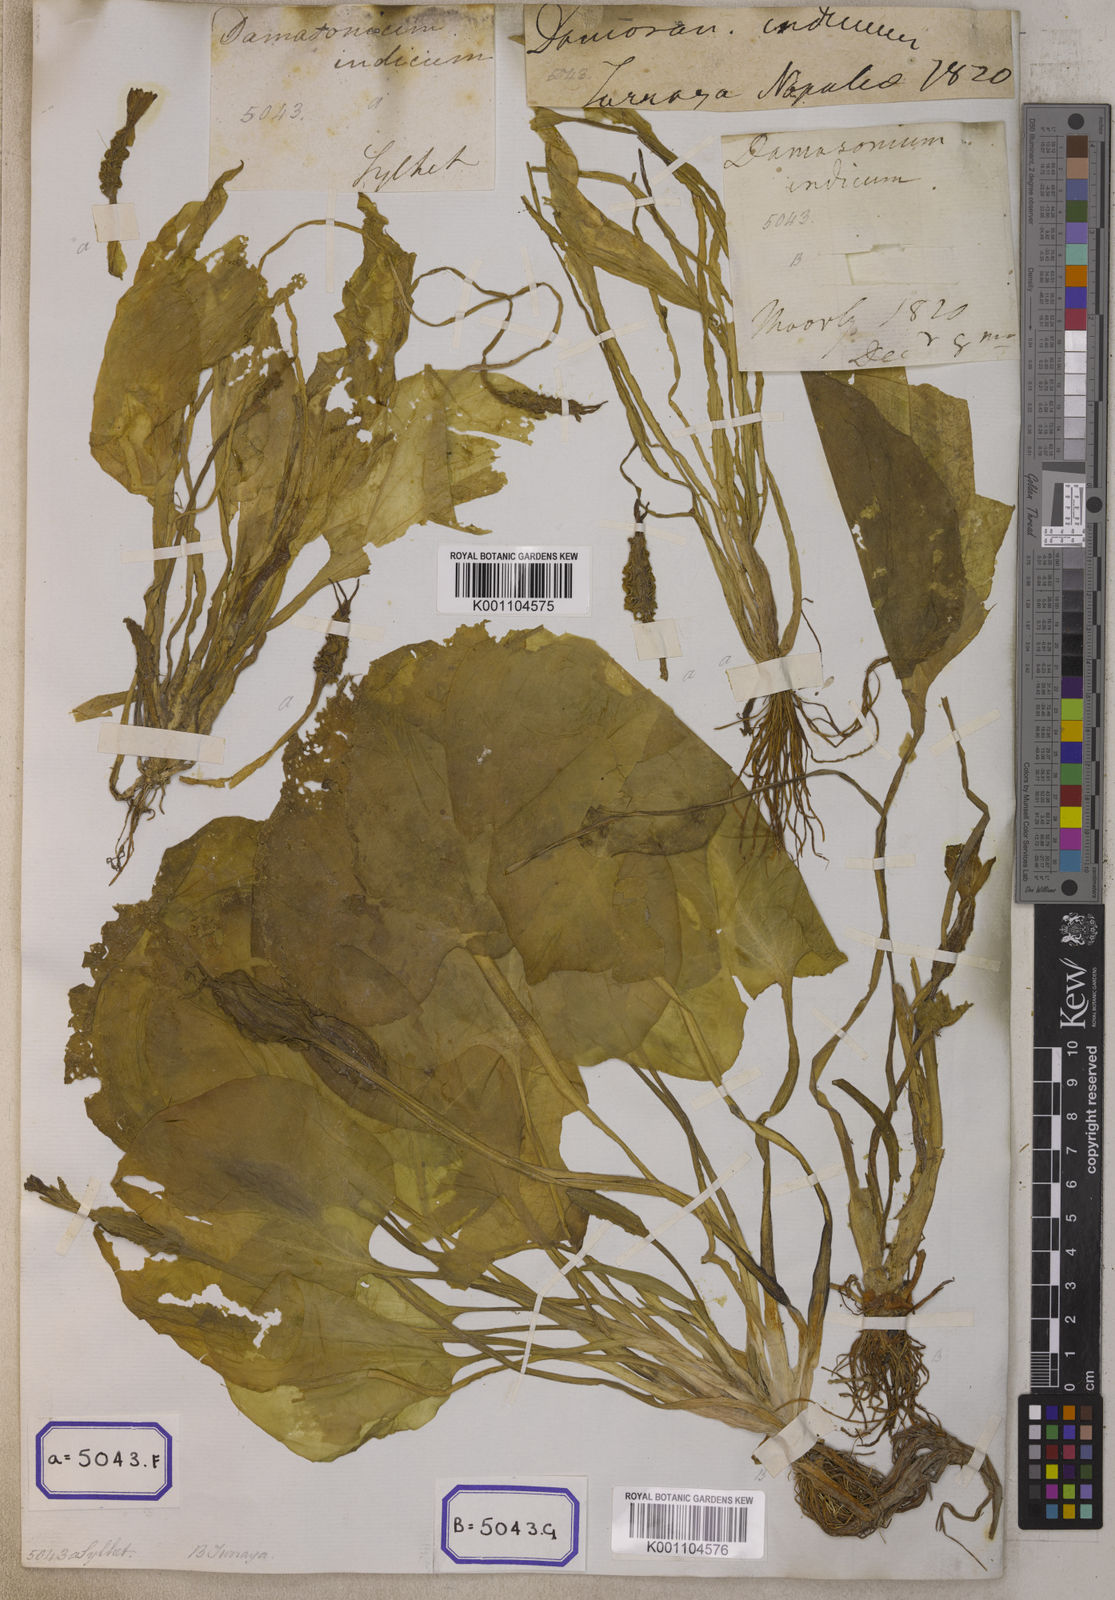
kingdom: Plantae
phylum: Tracheophyta
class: Liliopsida
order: Alismatales
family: Hydrocharitaceae
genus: Ottelia
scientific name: Ottelia alismoides
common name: Duck-lettuce
